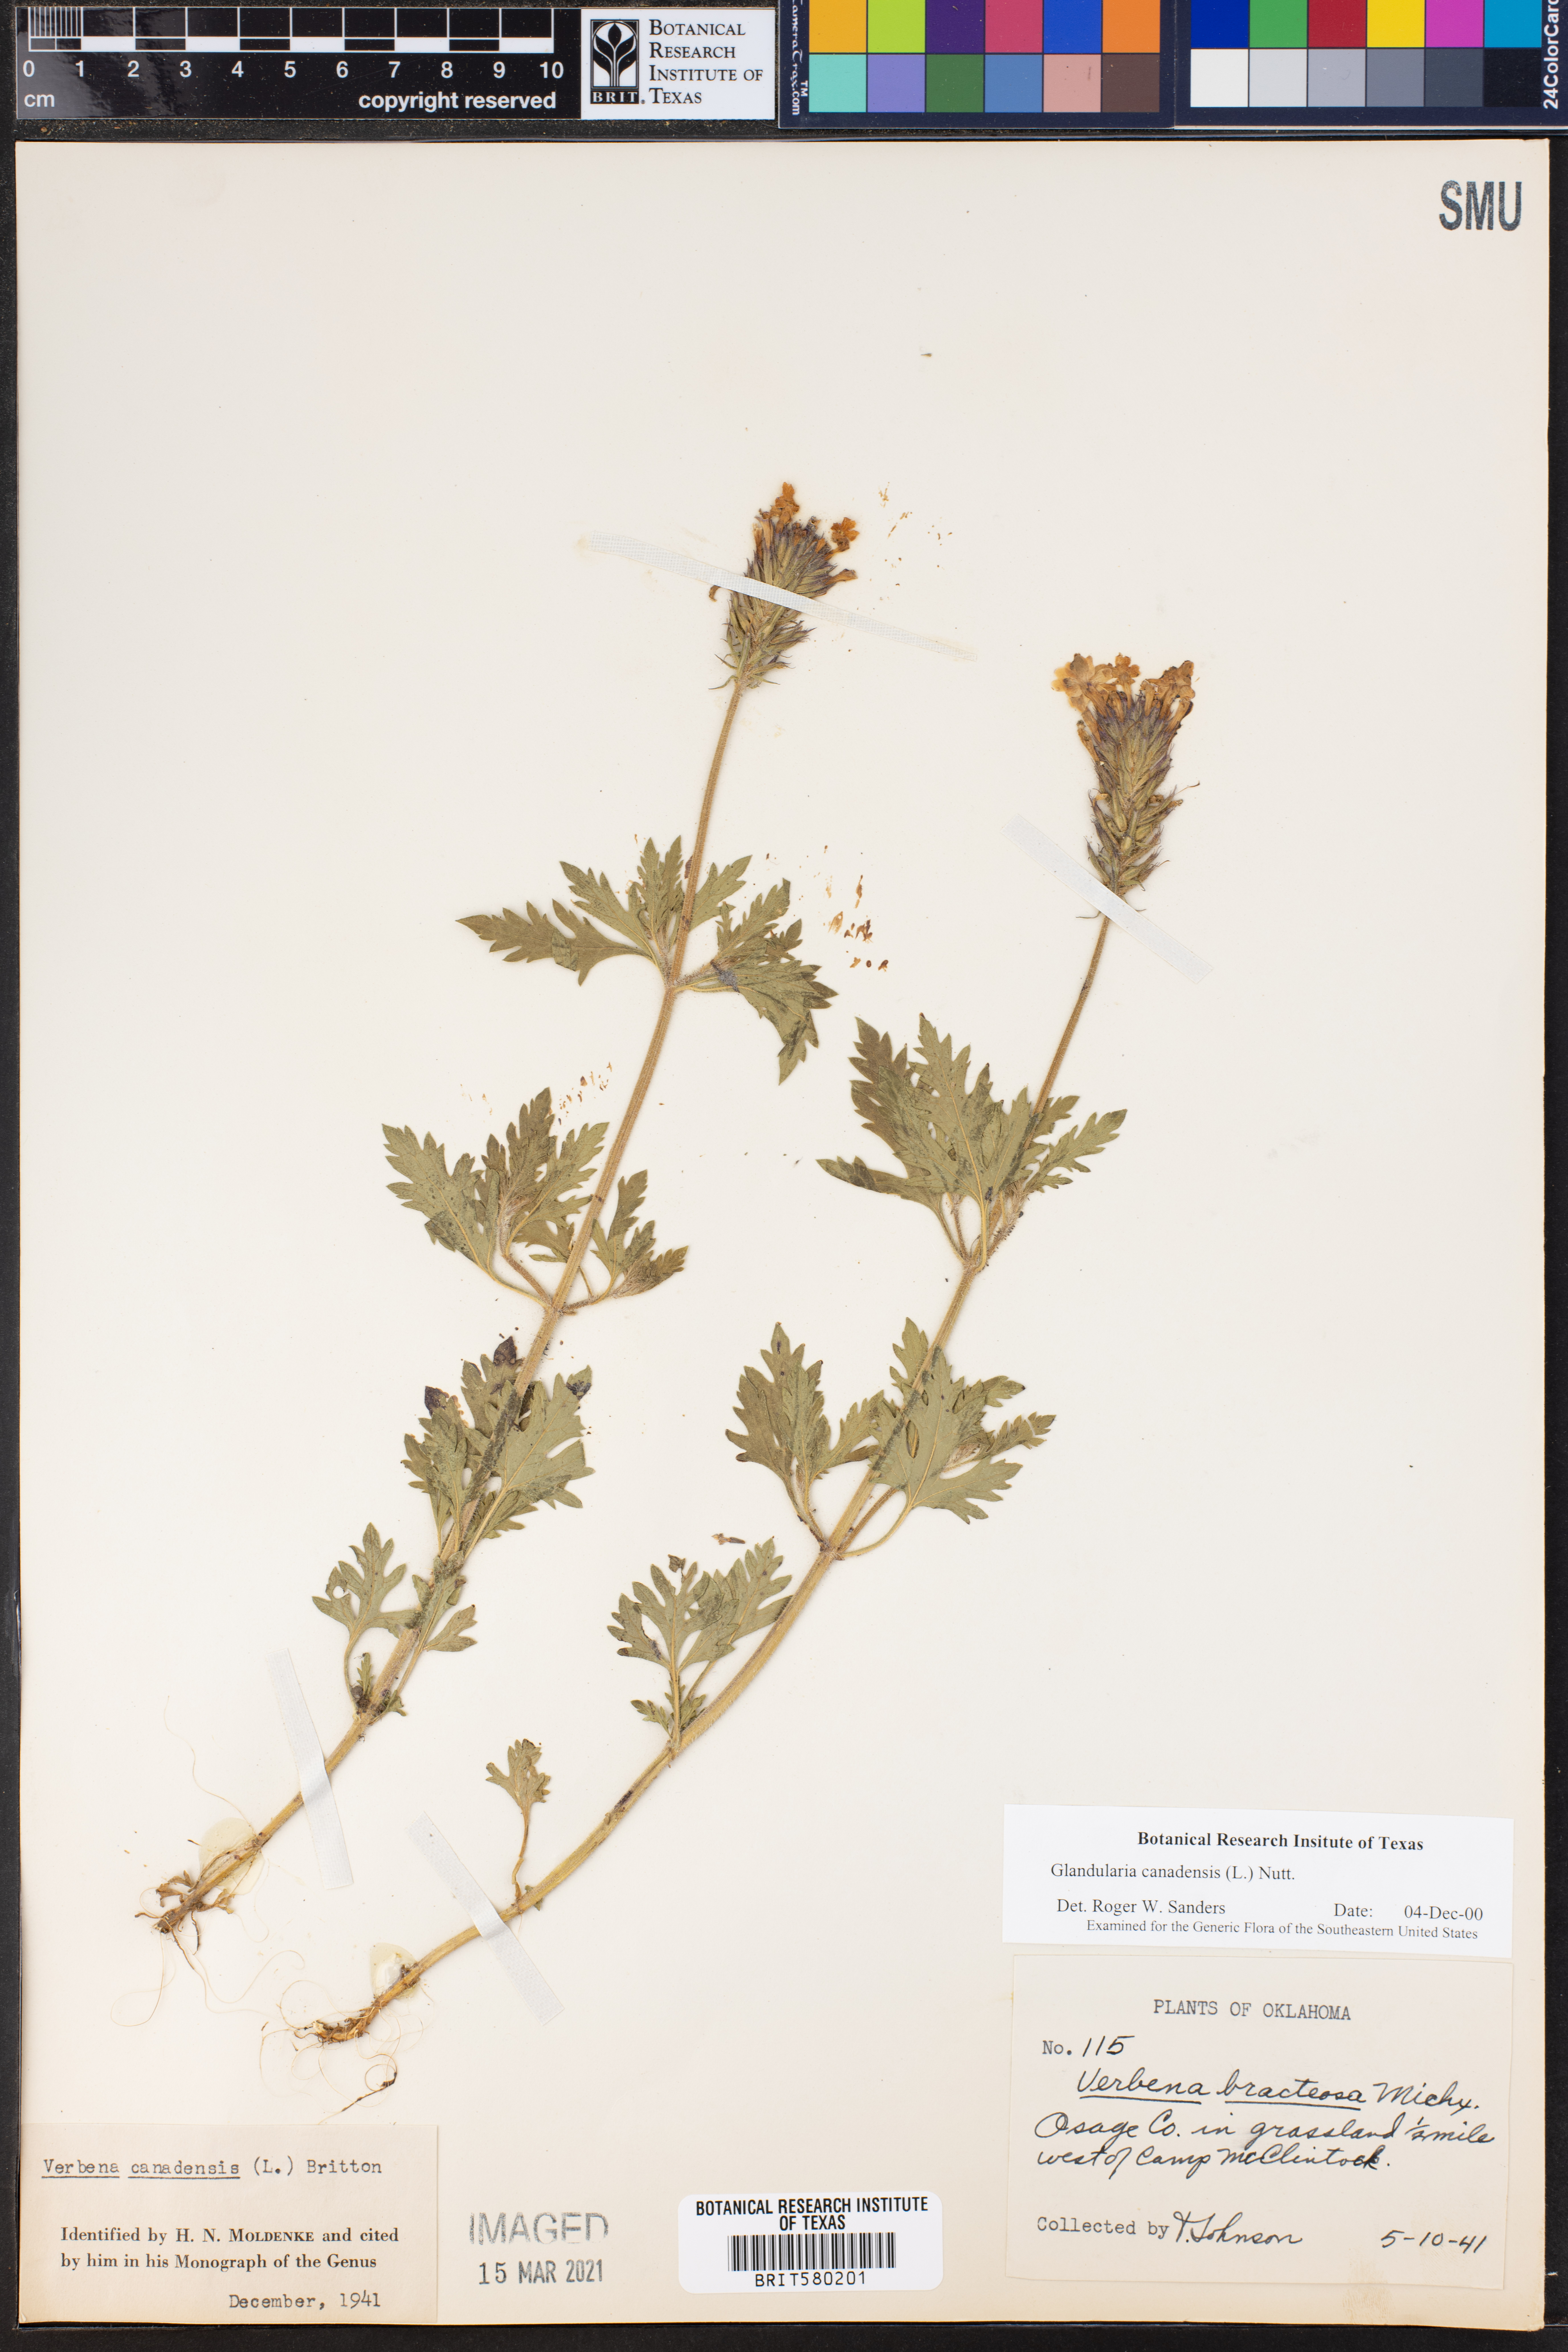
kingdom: Plantae
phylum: Tracheophyta
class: Magnoliopsida
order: Lamiales
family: Verbenaceae
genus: Verbena
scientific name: Verbena canadensis
